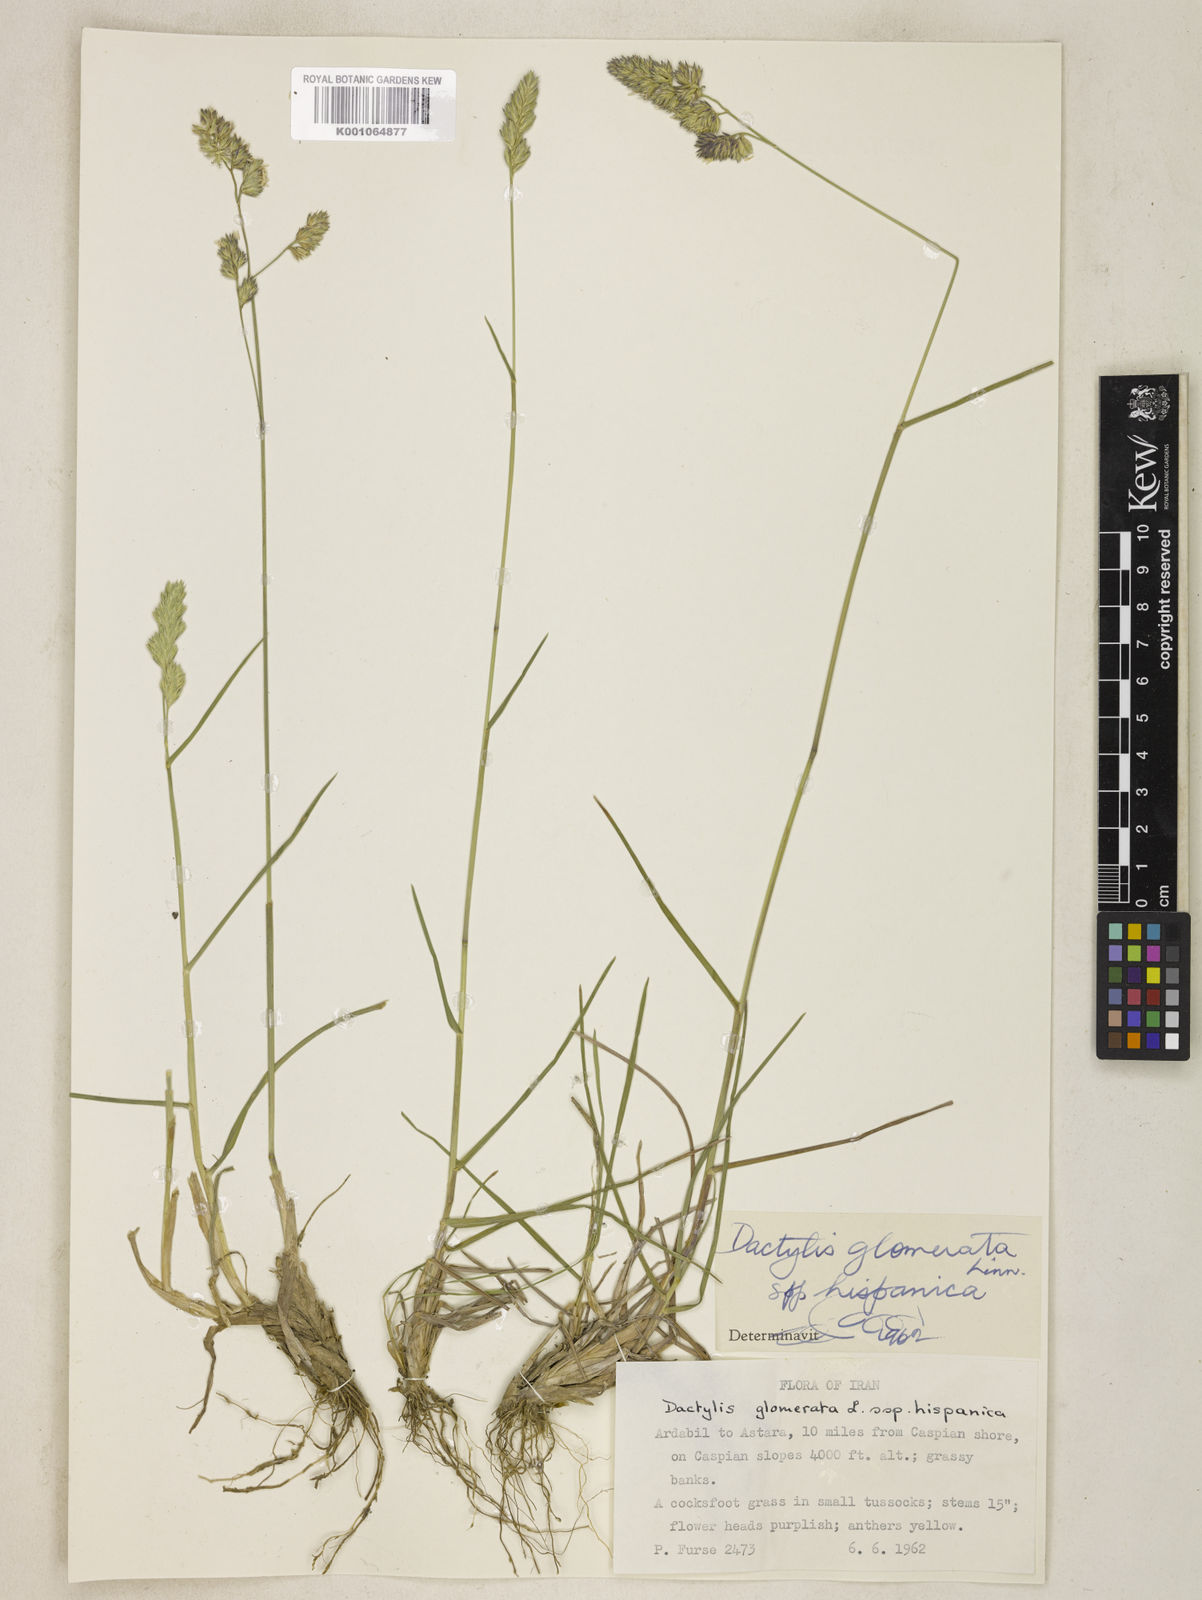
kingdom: Plantae
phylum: Tracheophyta
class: Liliopsida
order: Poales
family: Poaceae
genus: Dactylis
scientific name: Dactylis glomerata
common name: Orchardgrass
